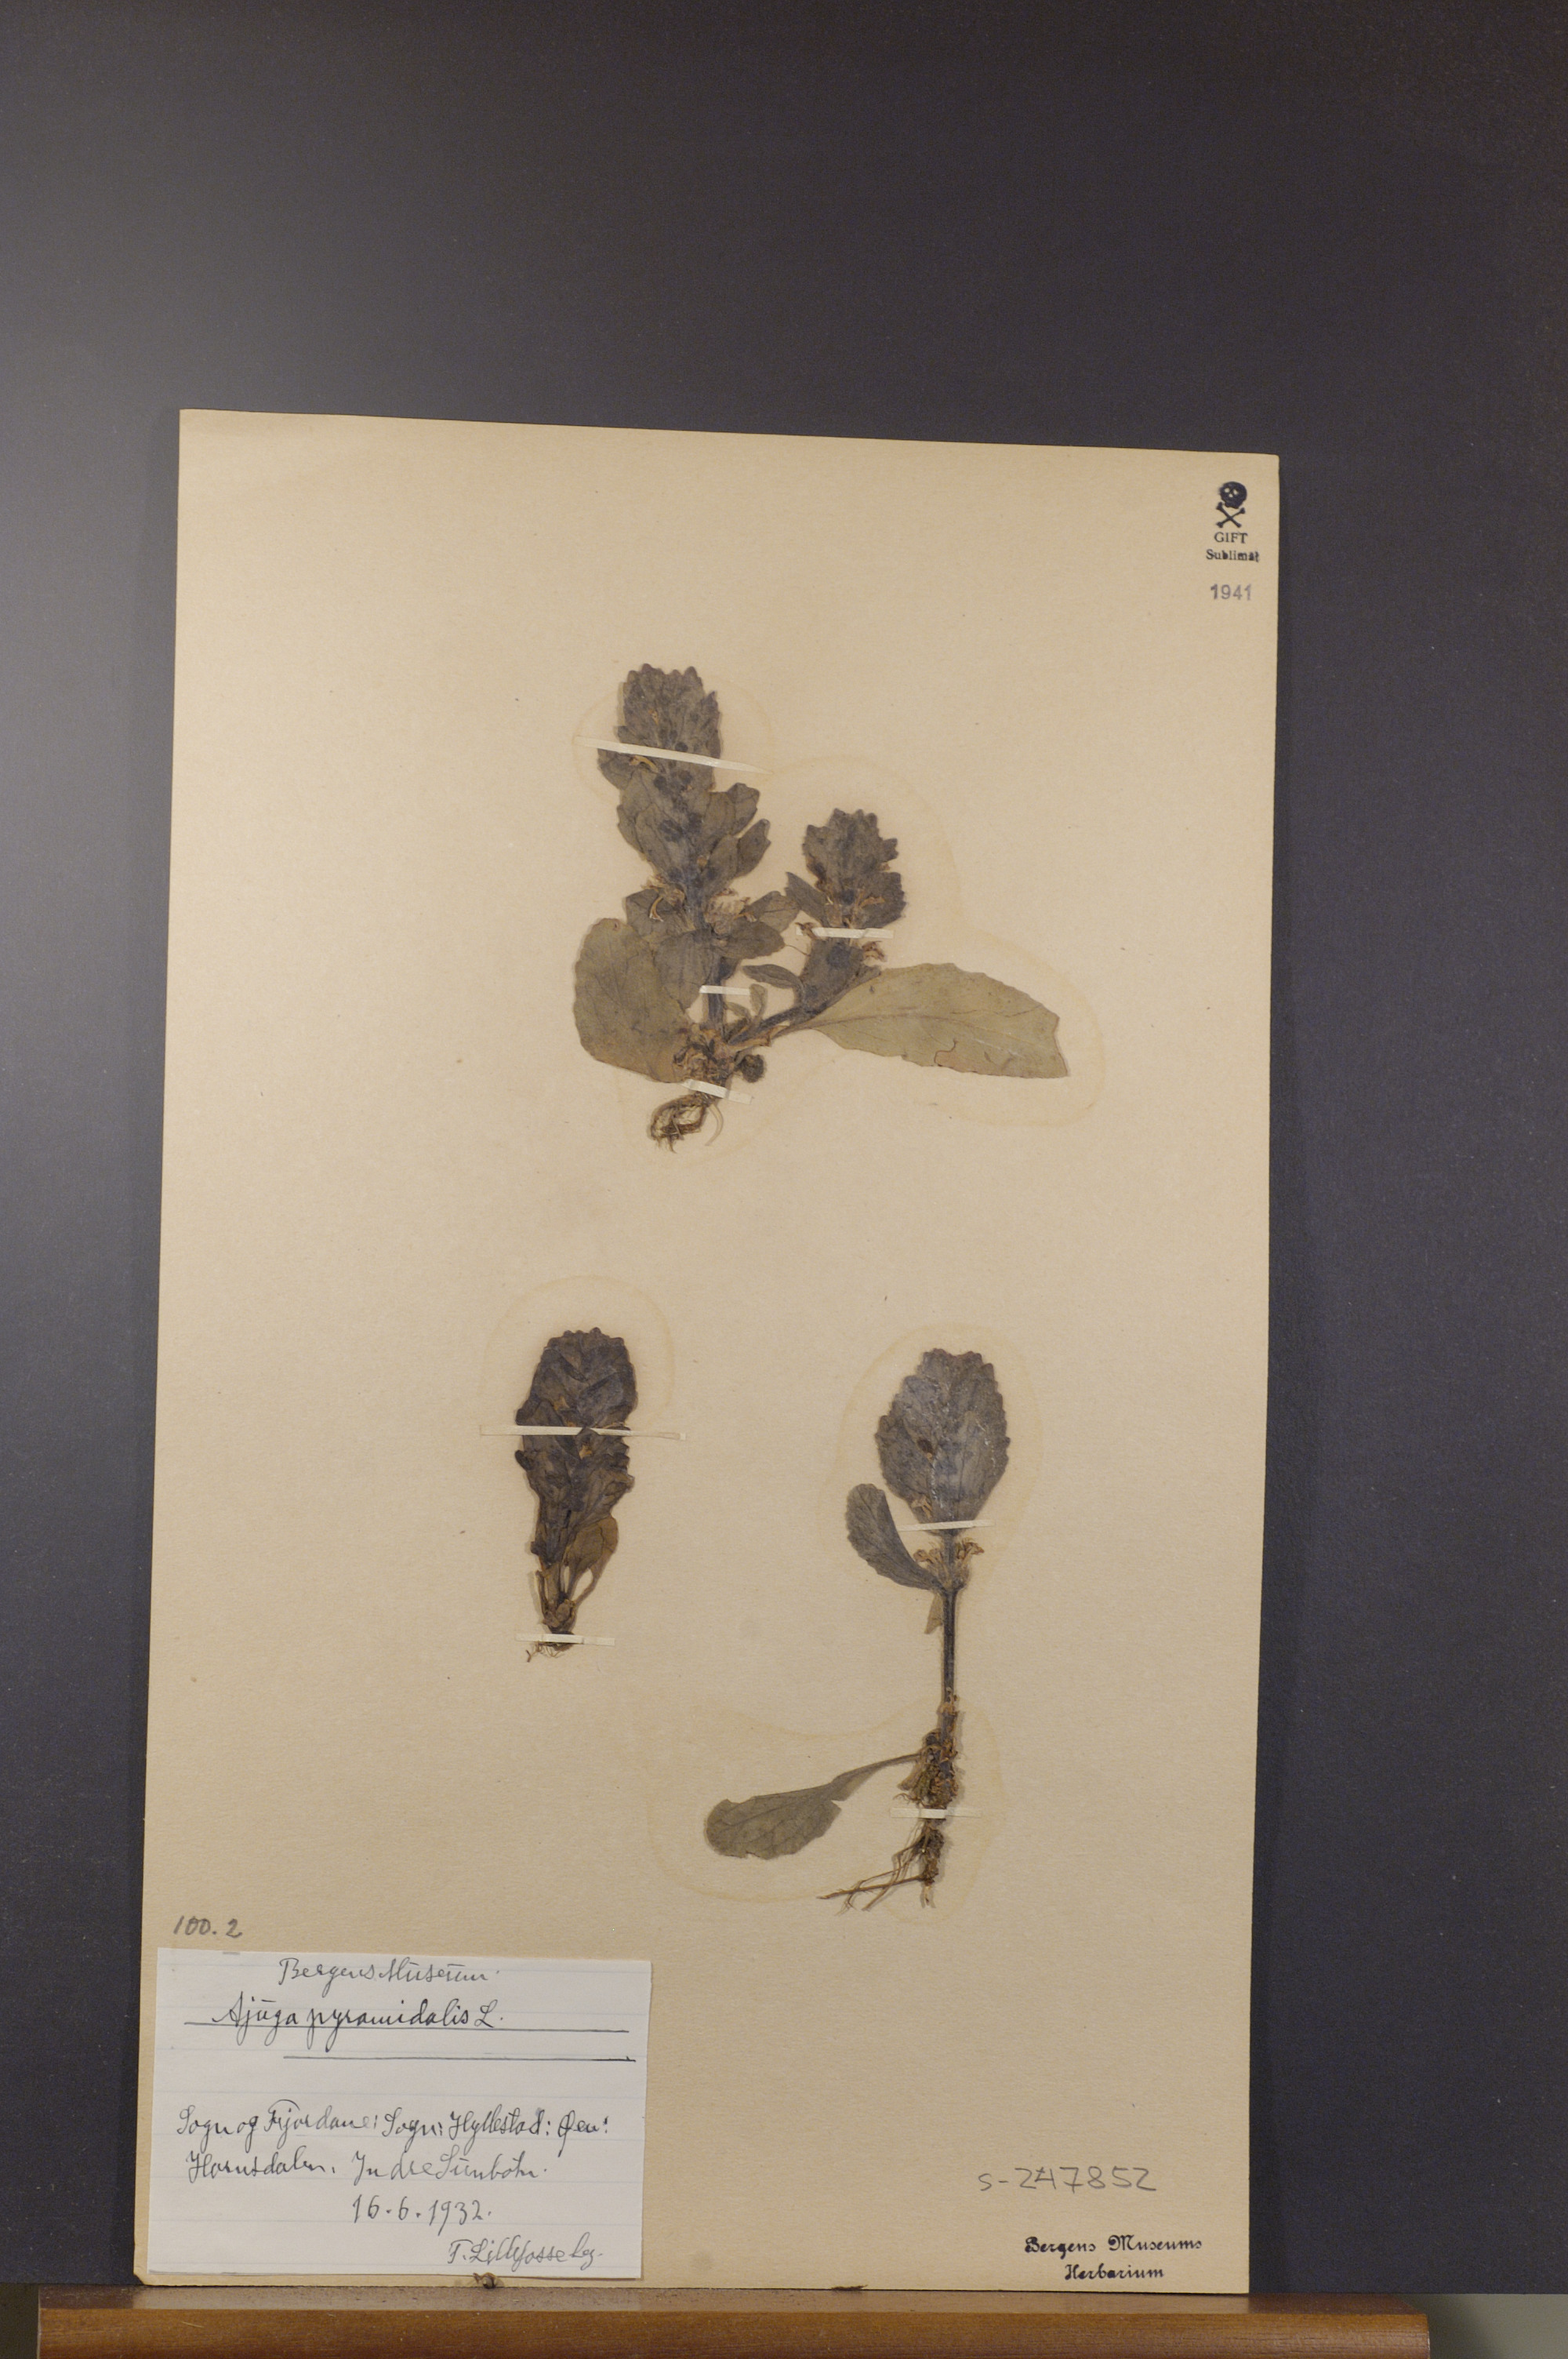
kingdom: Plantae
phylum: Tracheophyta
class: Magnoliopsida
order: Lamiales
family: Lamiaceae
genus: Ajuga
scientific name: Ajuga pyramidalis
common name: Pyramid bugle
